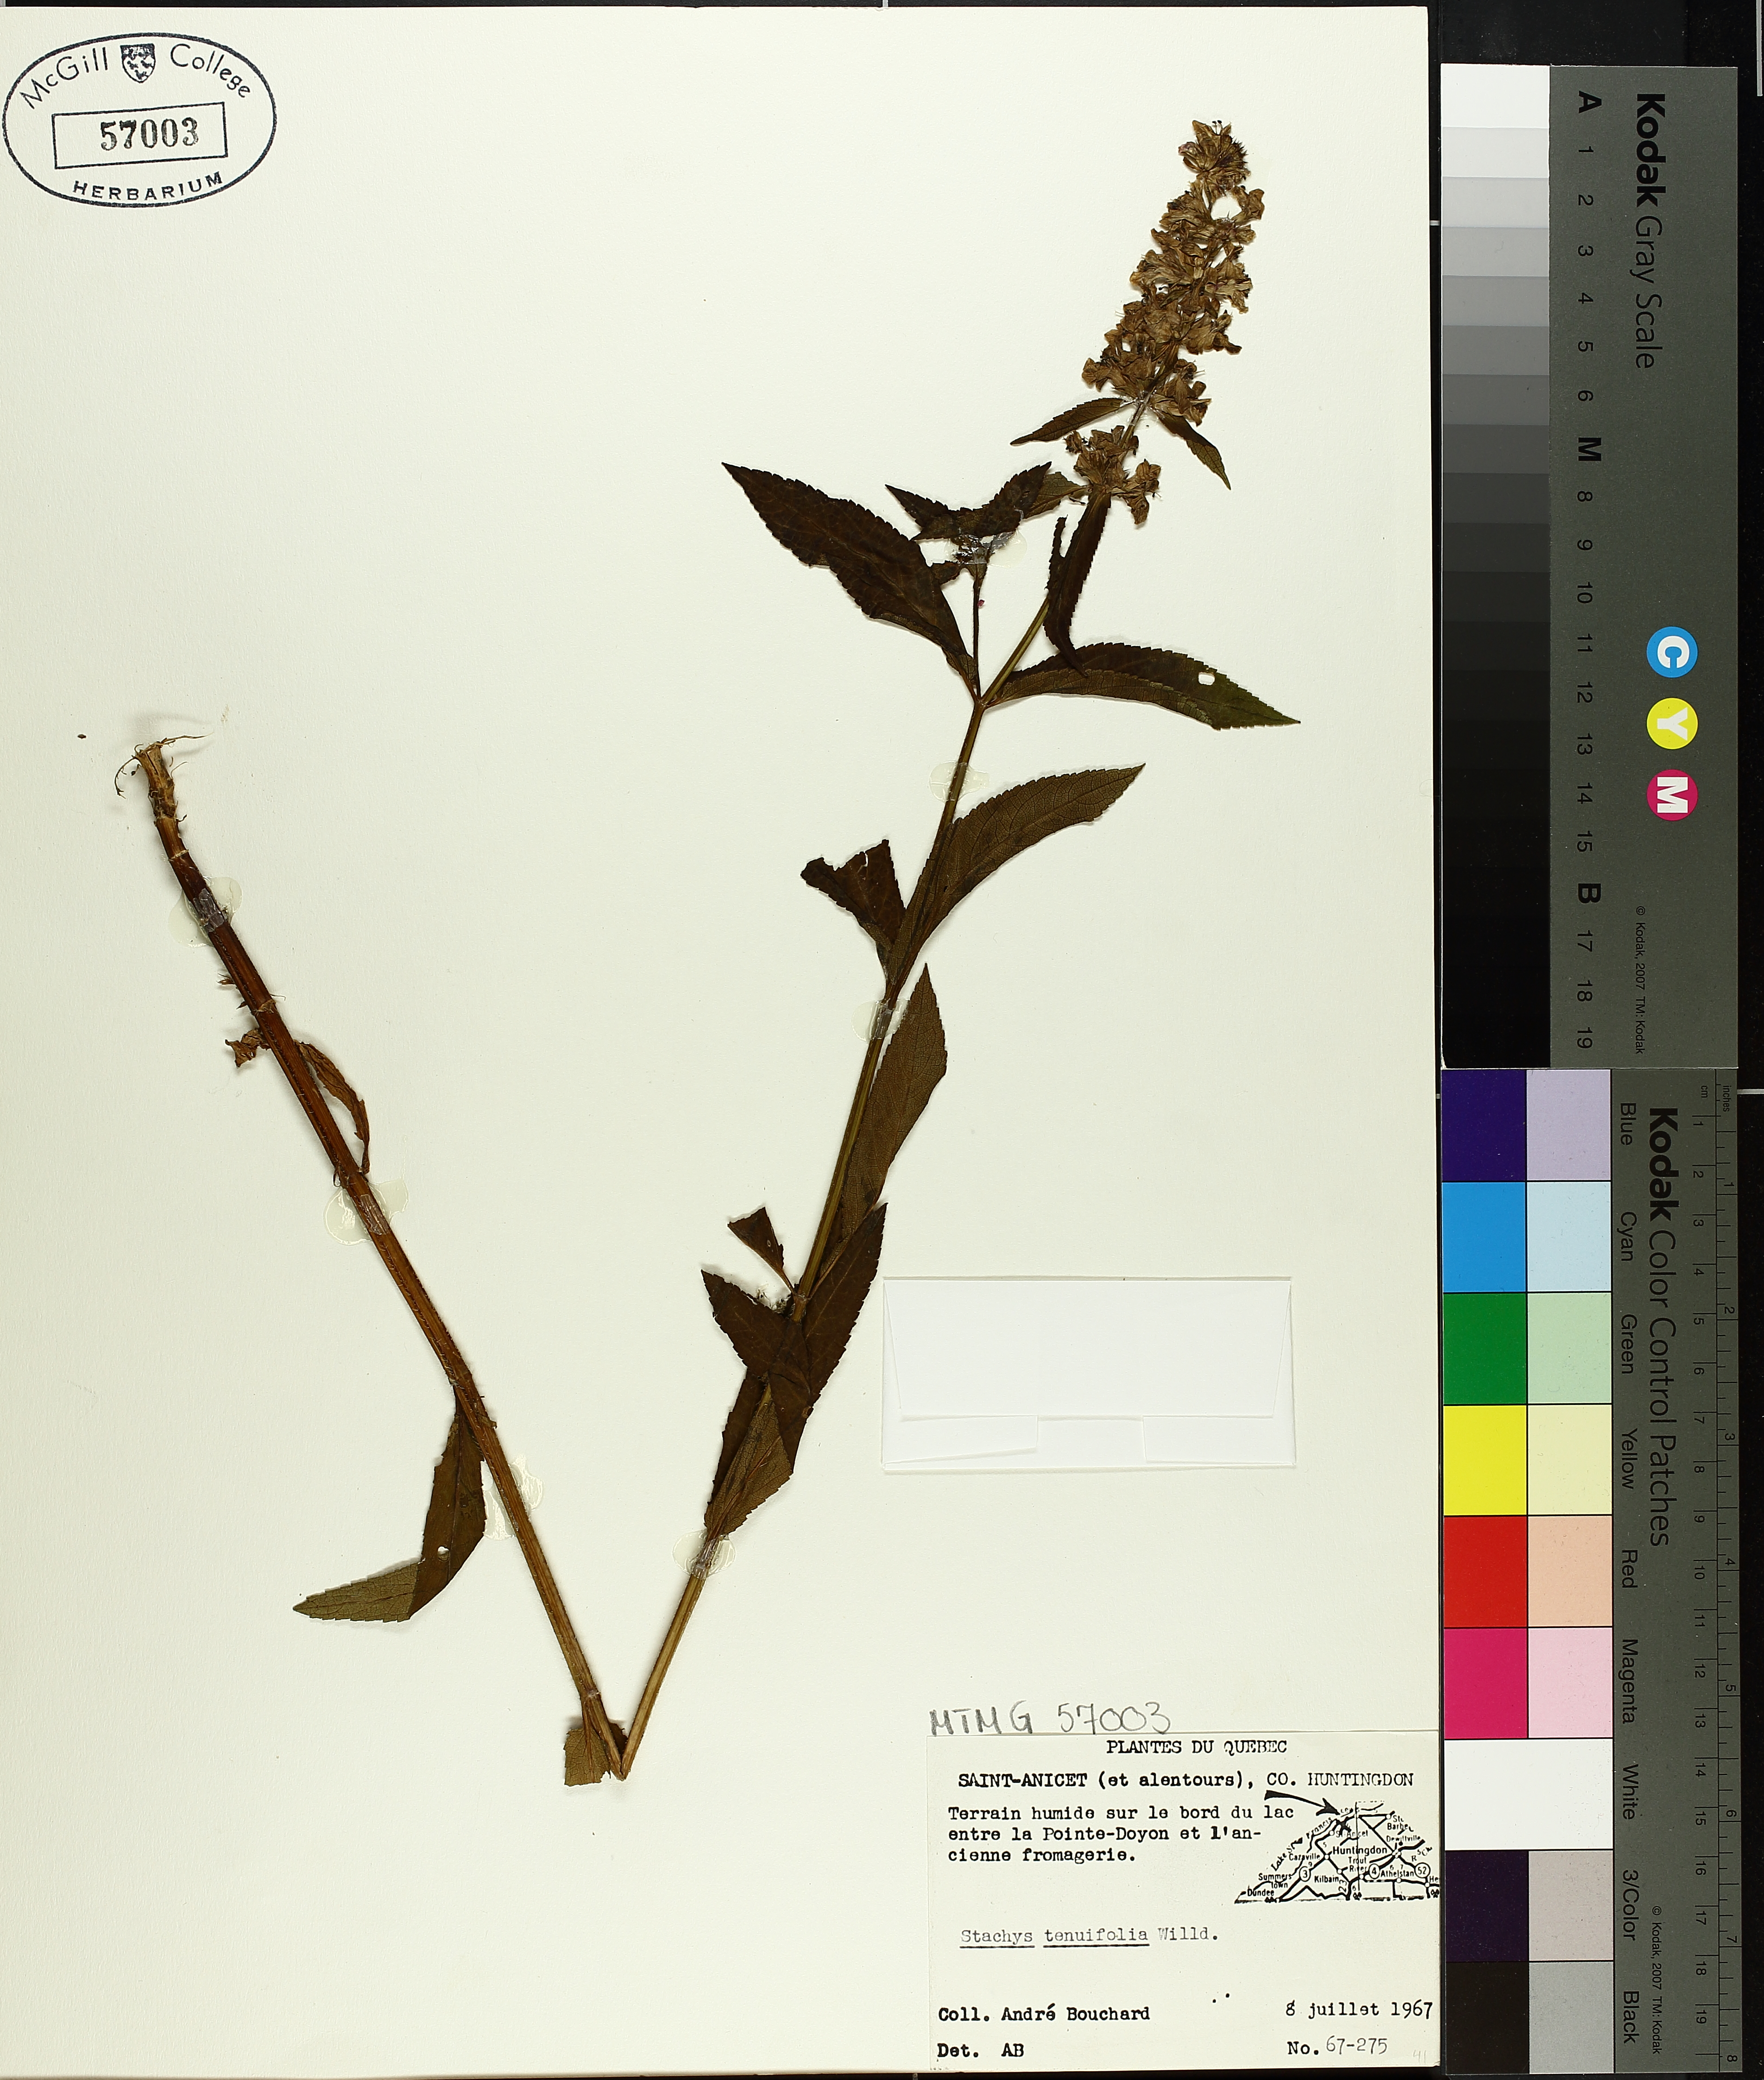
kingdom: Plantae
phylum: Tracheophyta
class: Magnoliopsida
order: Lamiales
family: Lamiaceae
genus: Stachys
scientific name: Stachys tenuifolia
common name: Smooth hedge-nettle
